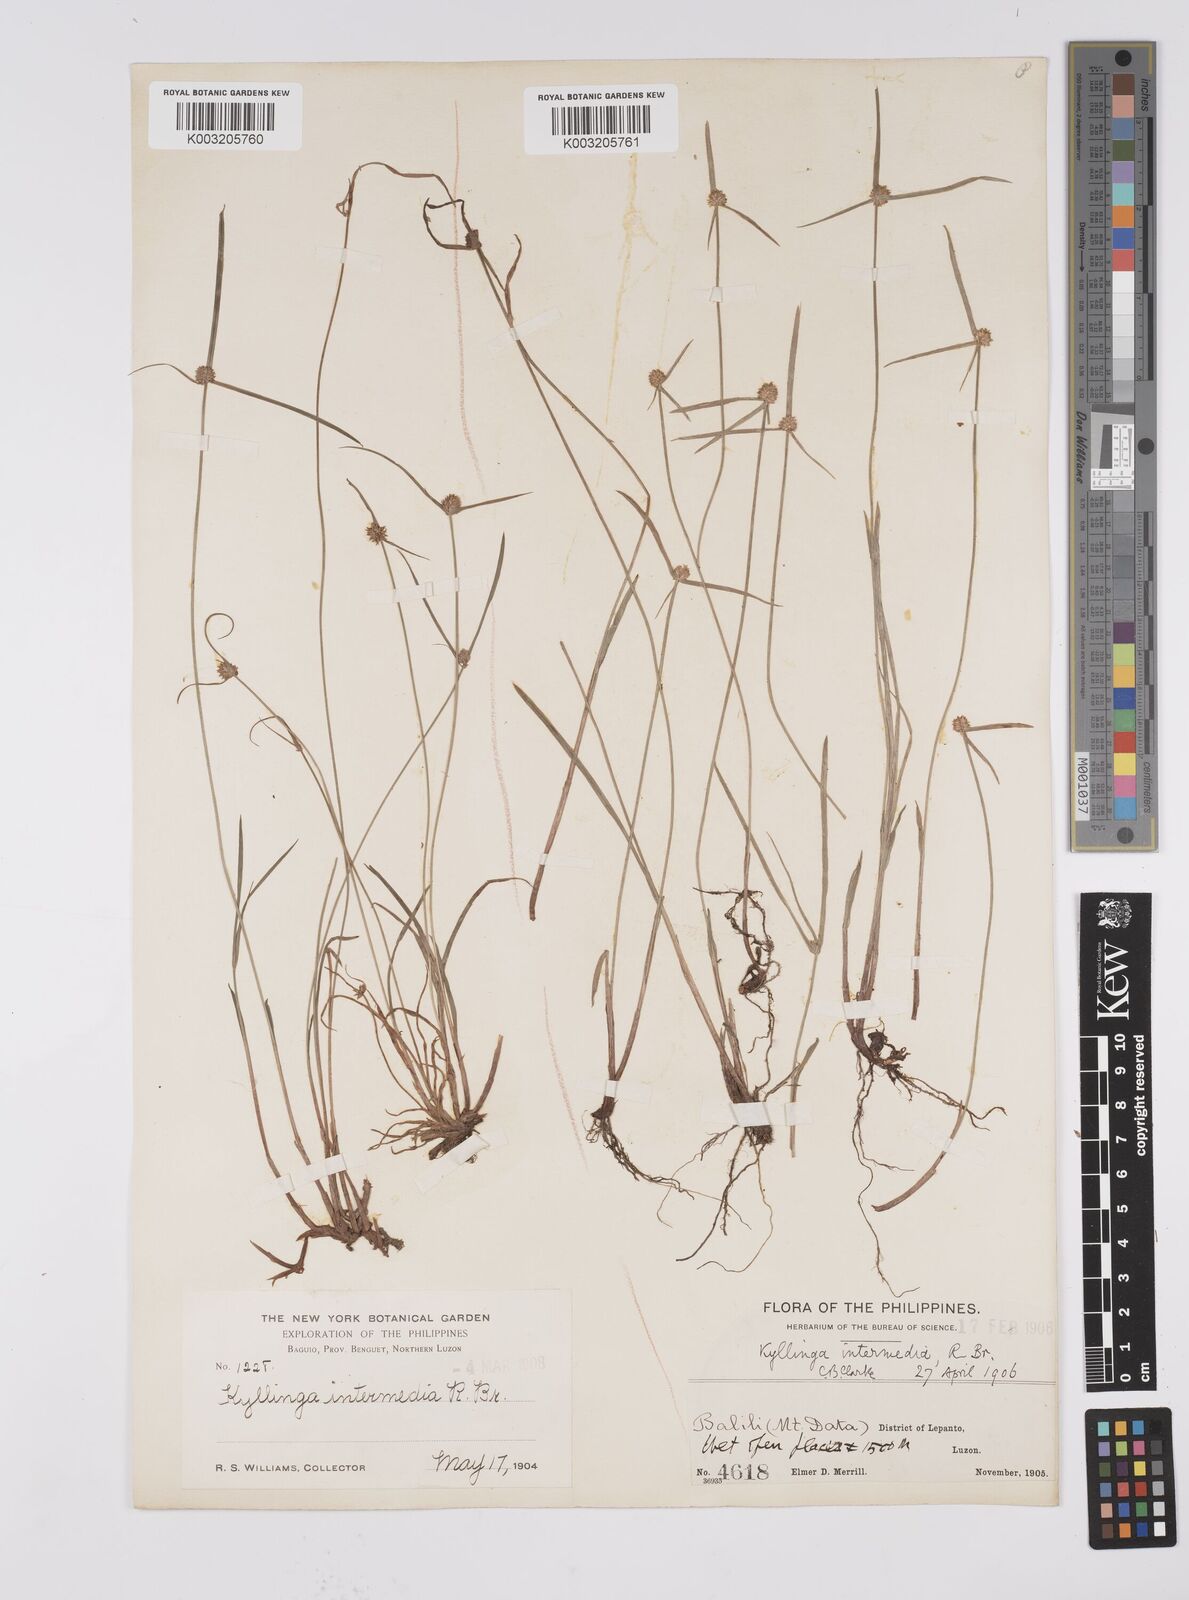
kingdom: Plantae
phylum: Tracheophyta
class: Liliopsida
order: Poales
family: Cyperaceae
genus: Cyperus
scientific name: Cyperus brevifolius
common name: Globe kyllinga
